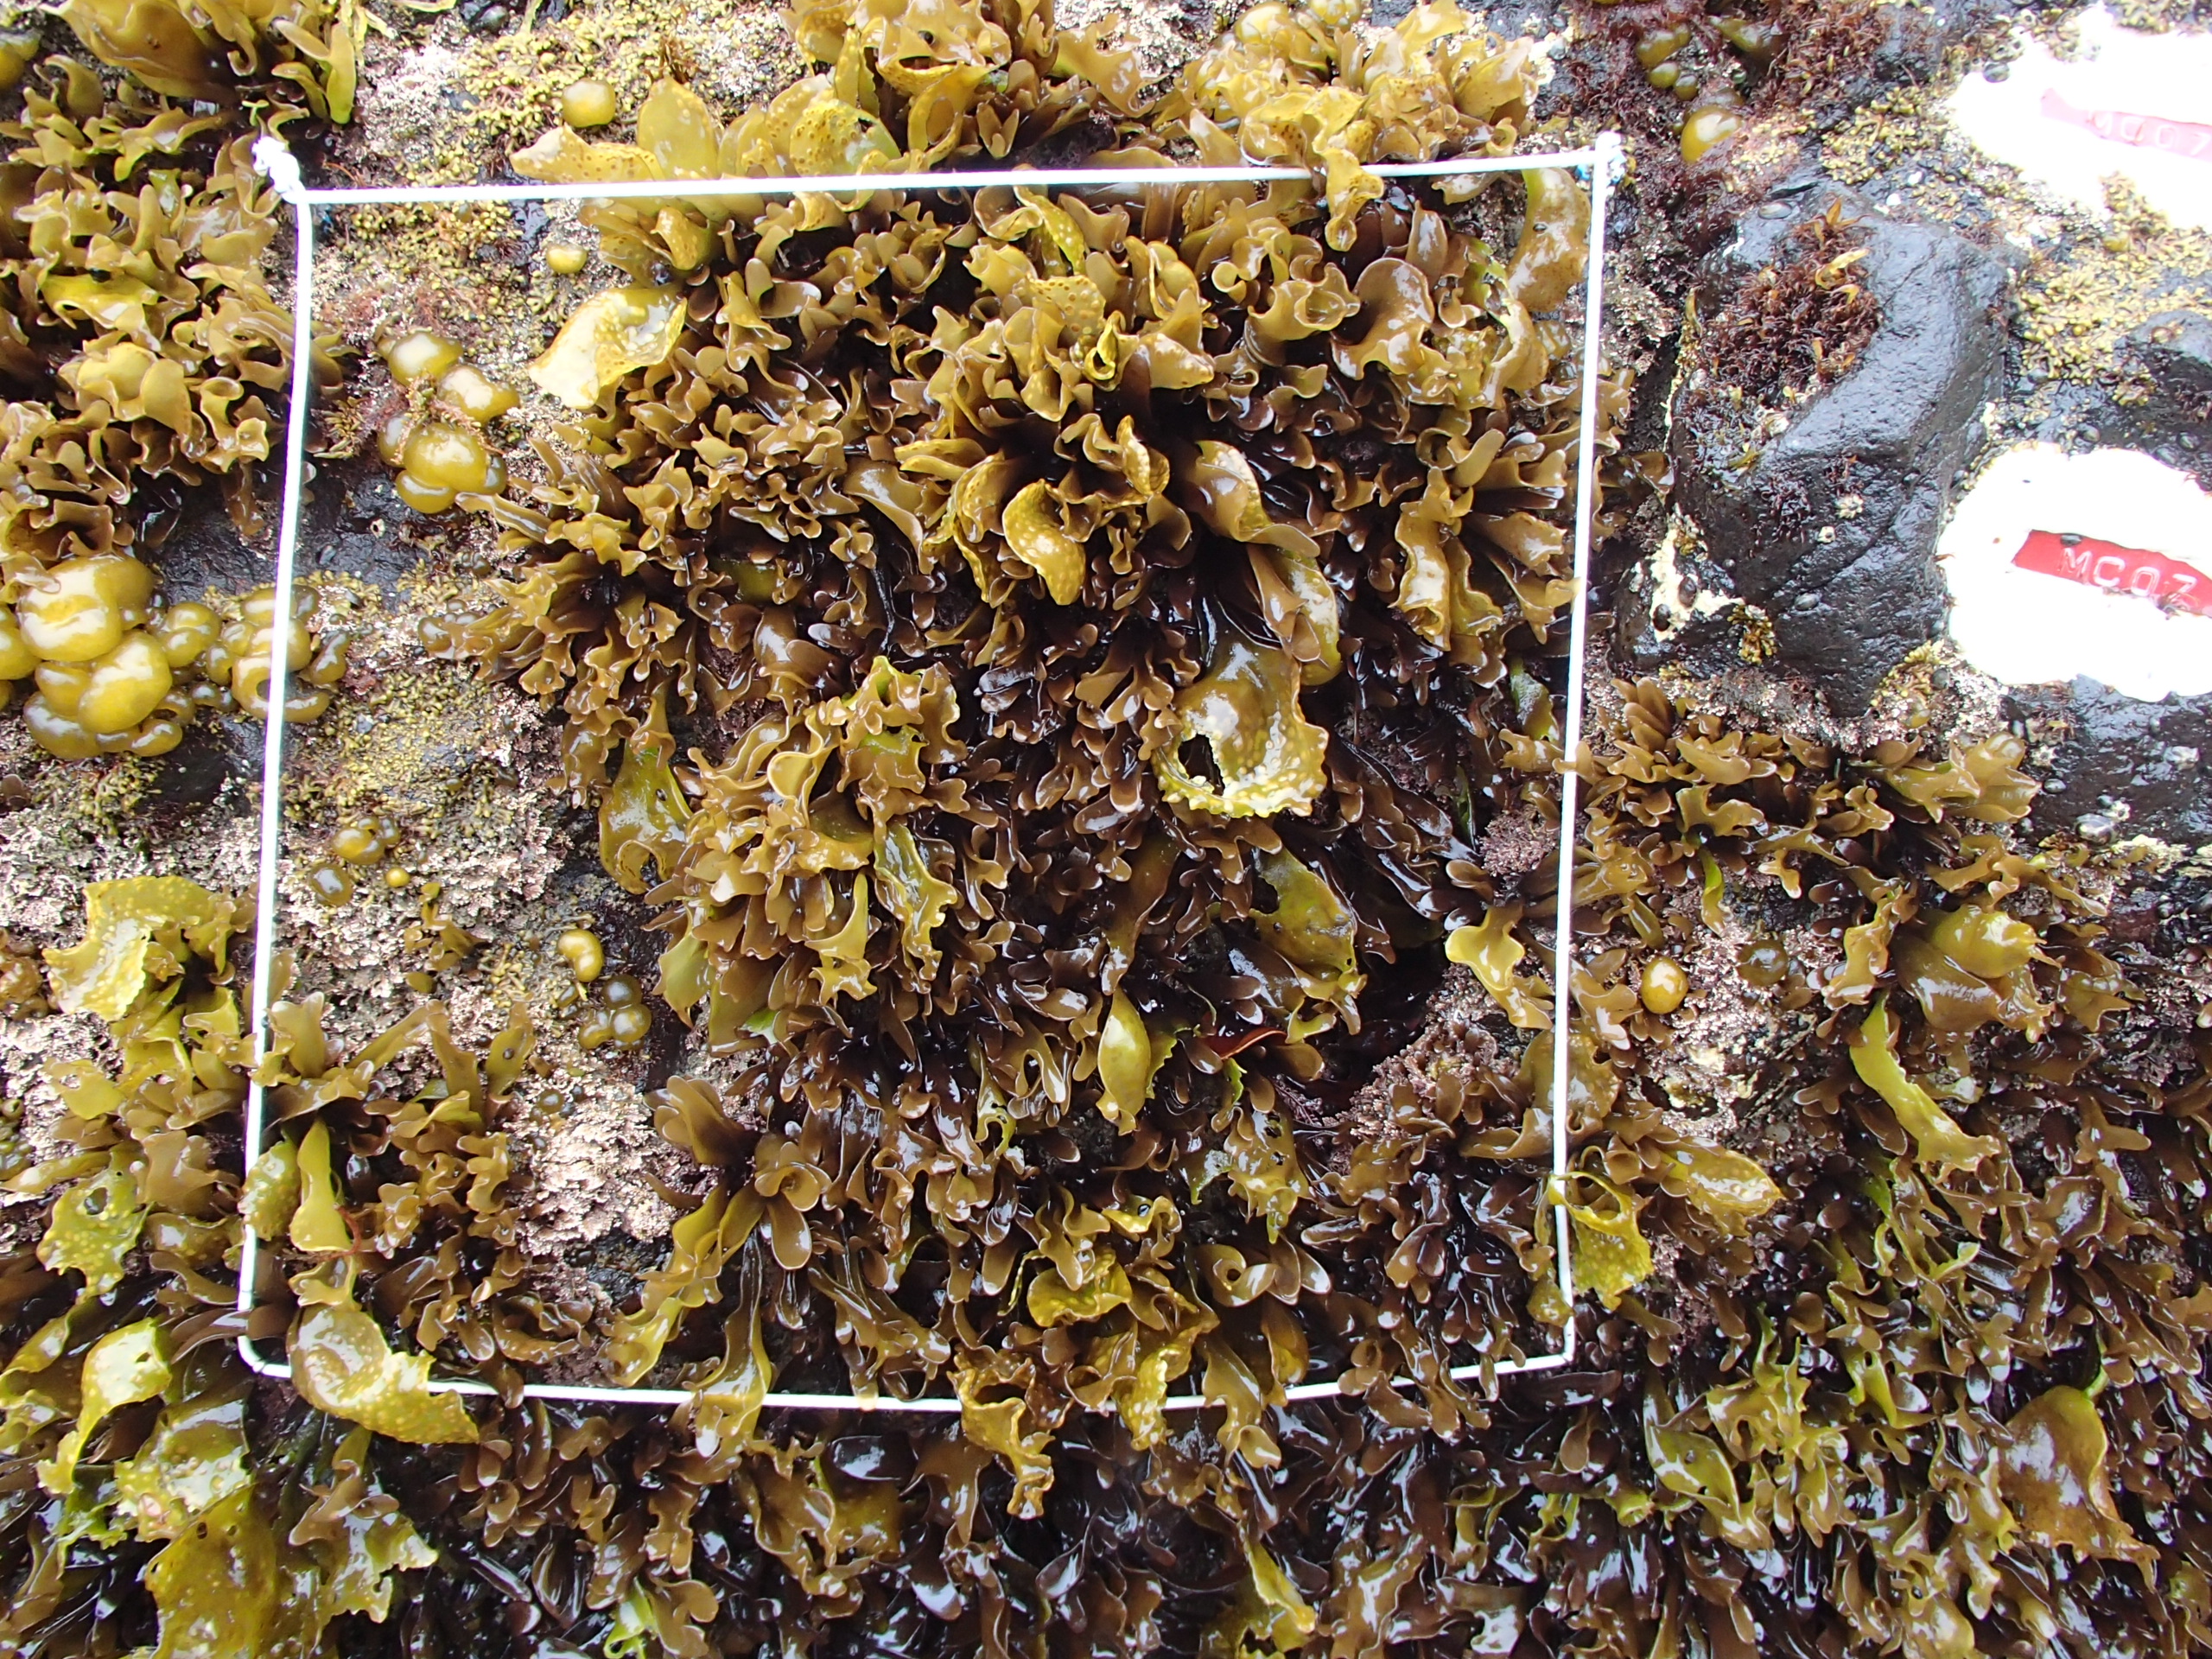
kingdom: Chromista
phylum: Ochrophyta
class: Phaeophyceae
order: Scytosiphonales
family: Scytosiphonaceae
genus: Analipus
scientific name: Analipus japonicus
